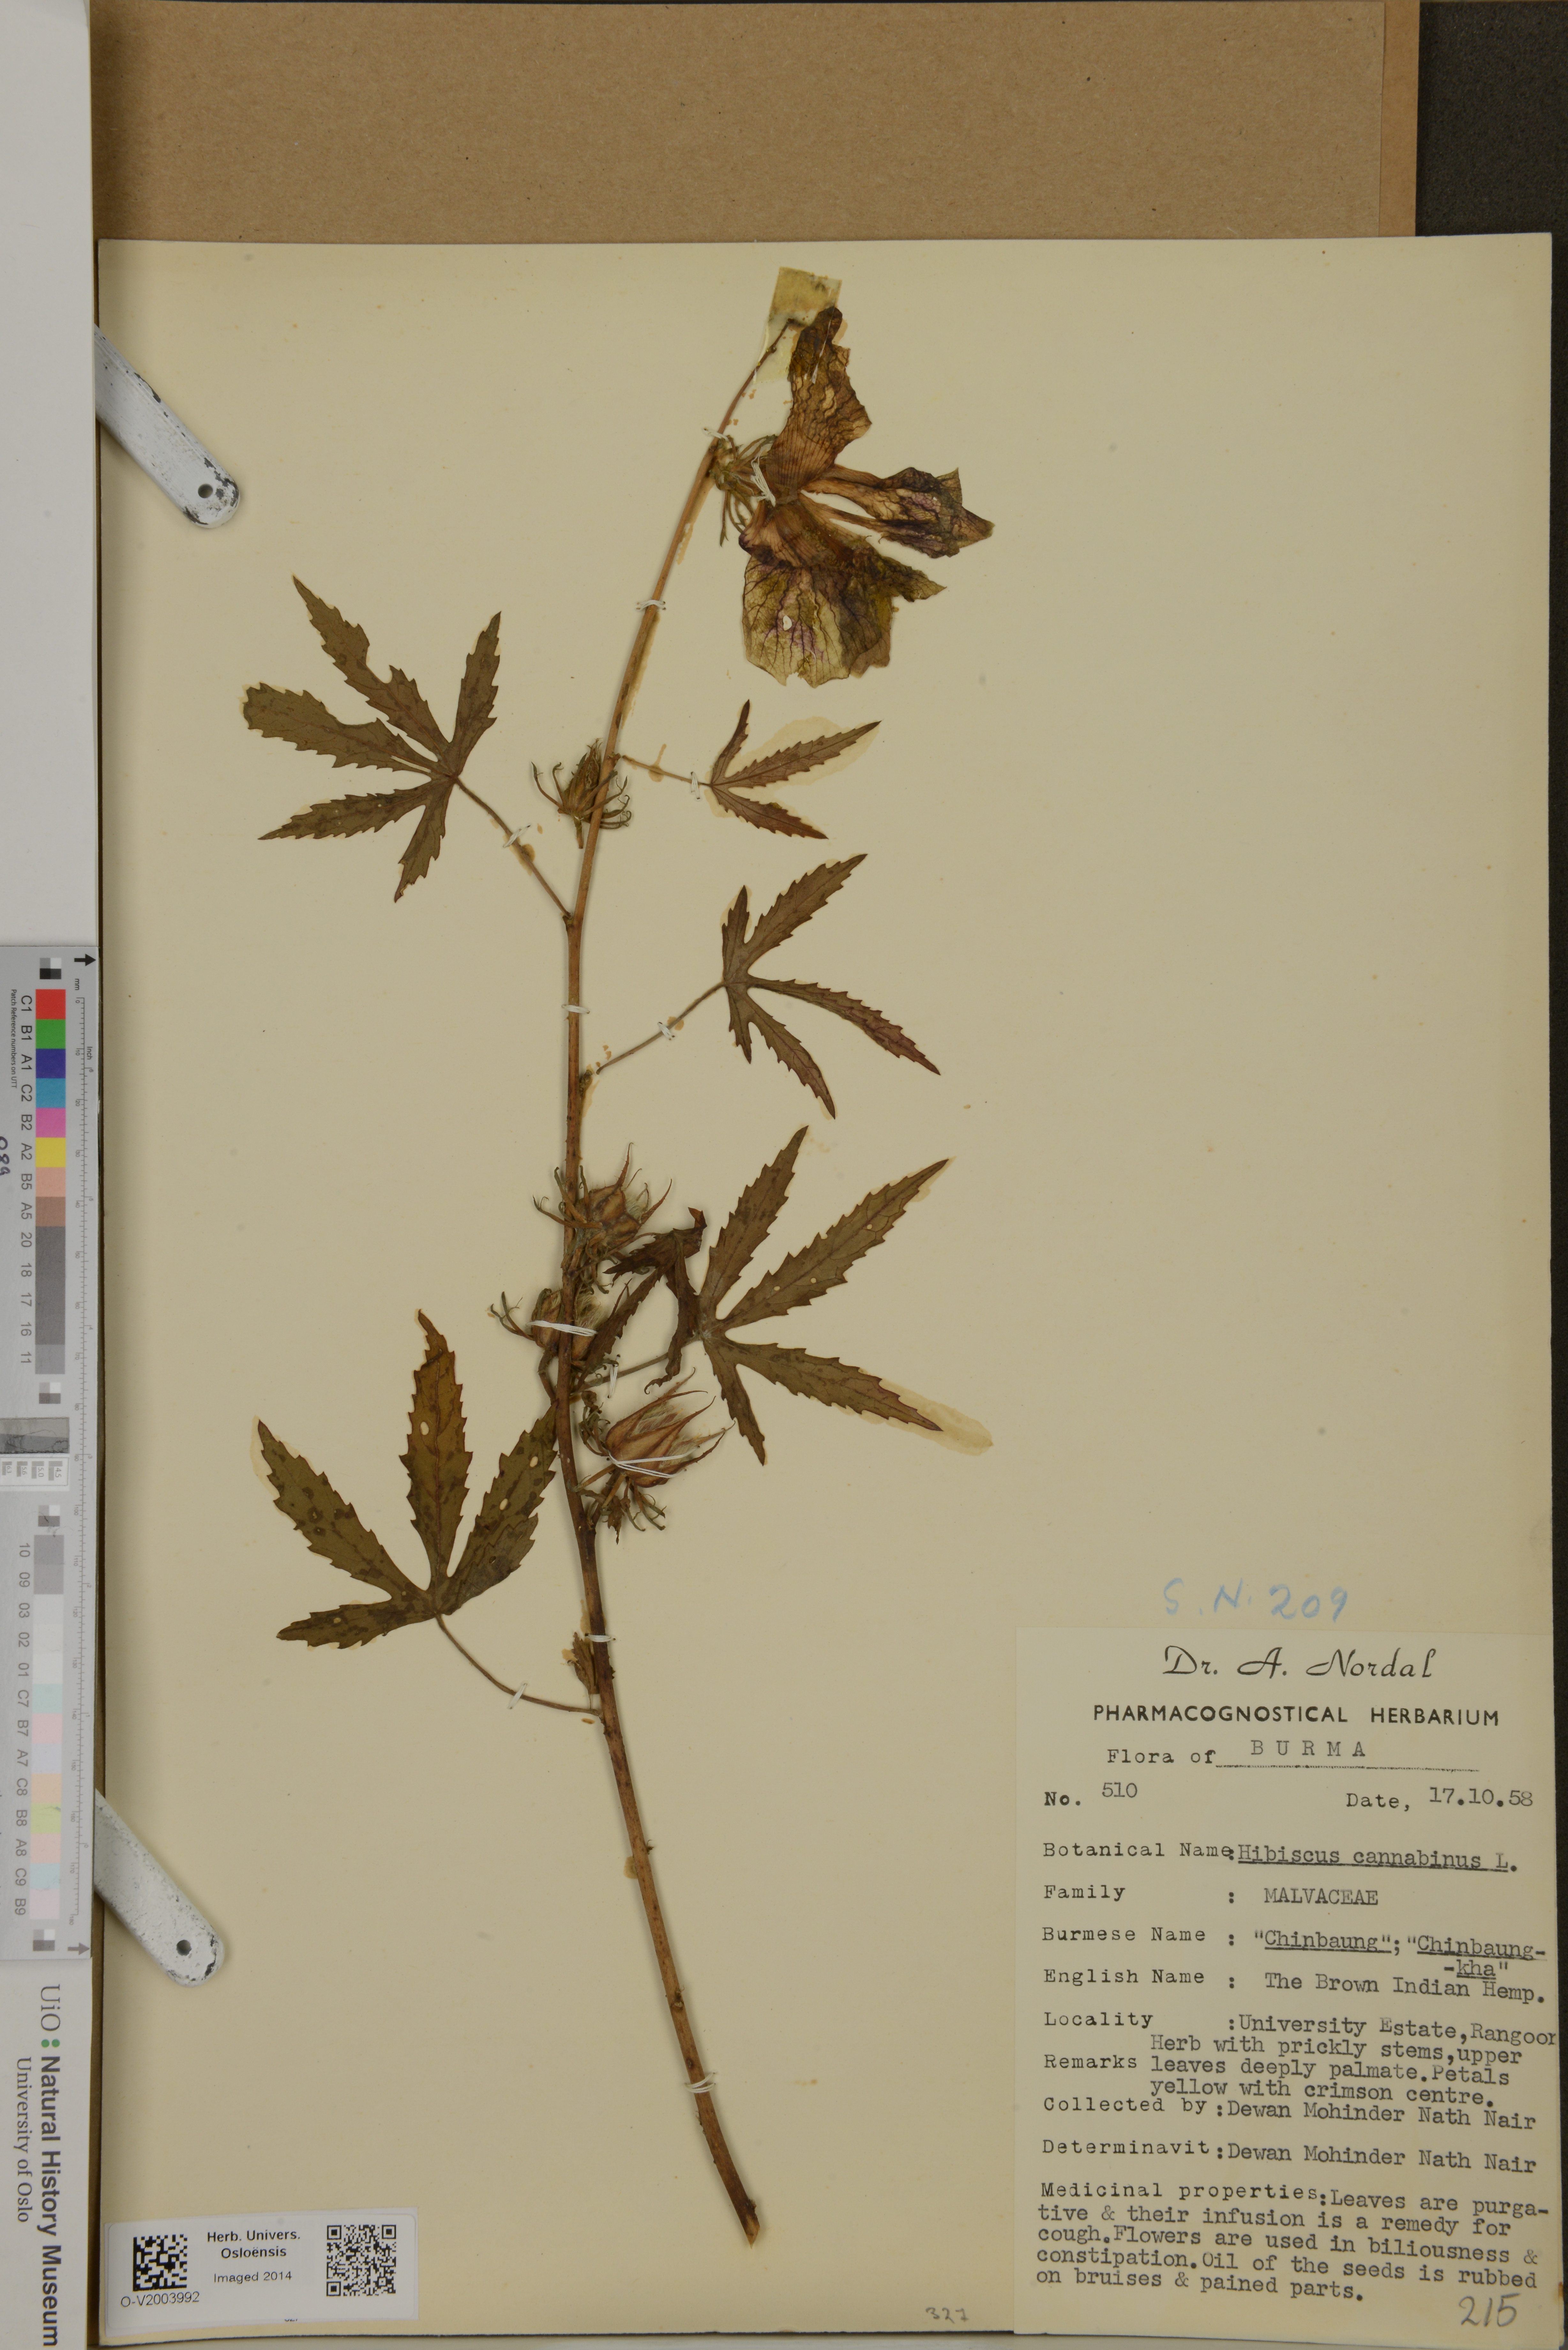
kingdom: Plantae
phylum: Tracheophyta
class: Magnoliopsida
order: Malvales
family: Malvaceae
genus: Hibiscus
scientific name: Hibiscus cannabinus
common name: Brown indianhemp
